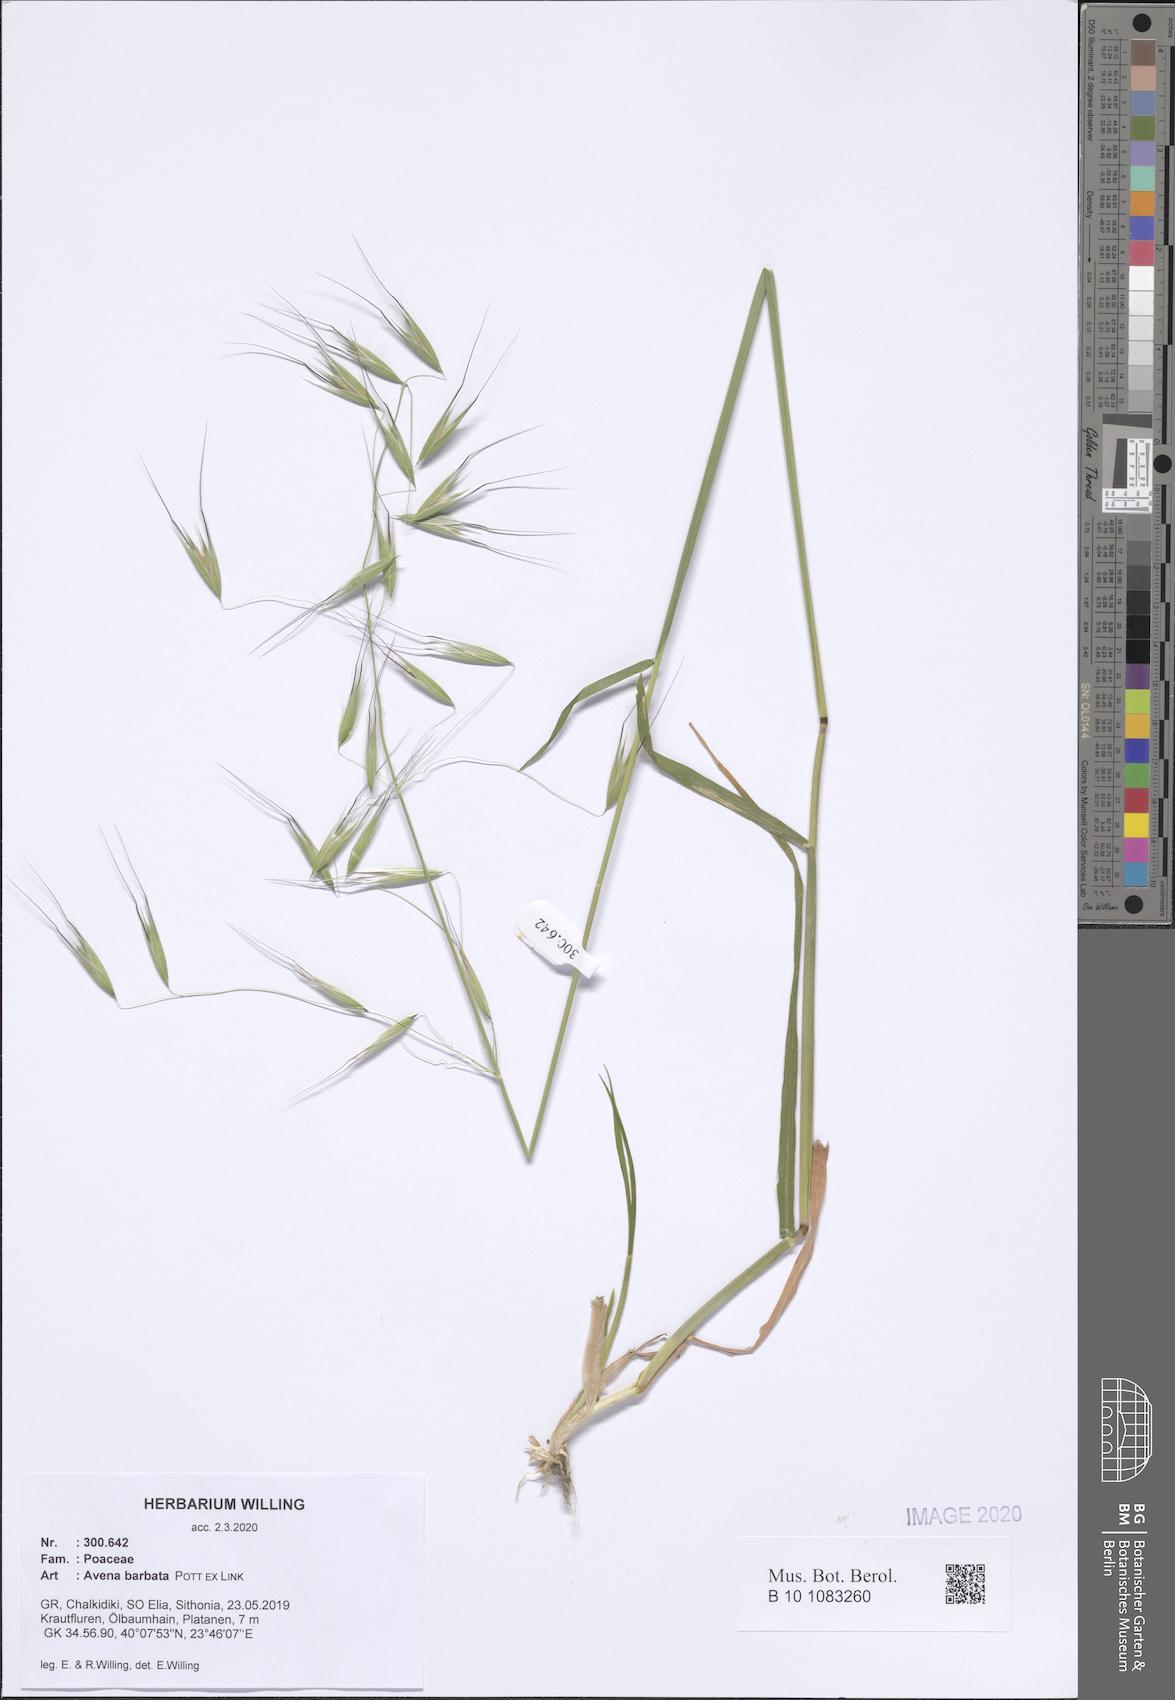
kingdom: Plantae
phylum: Tracheophyta
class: Liliopsida
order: Poales
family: Poaceae
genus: Avena
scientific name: Avena barbata
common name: Slender oat
